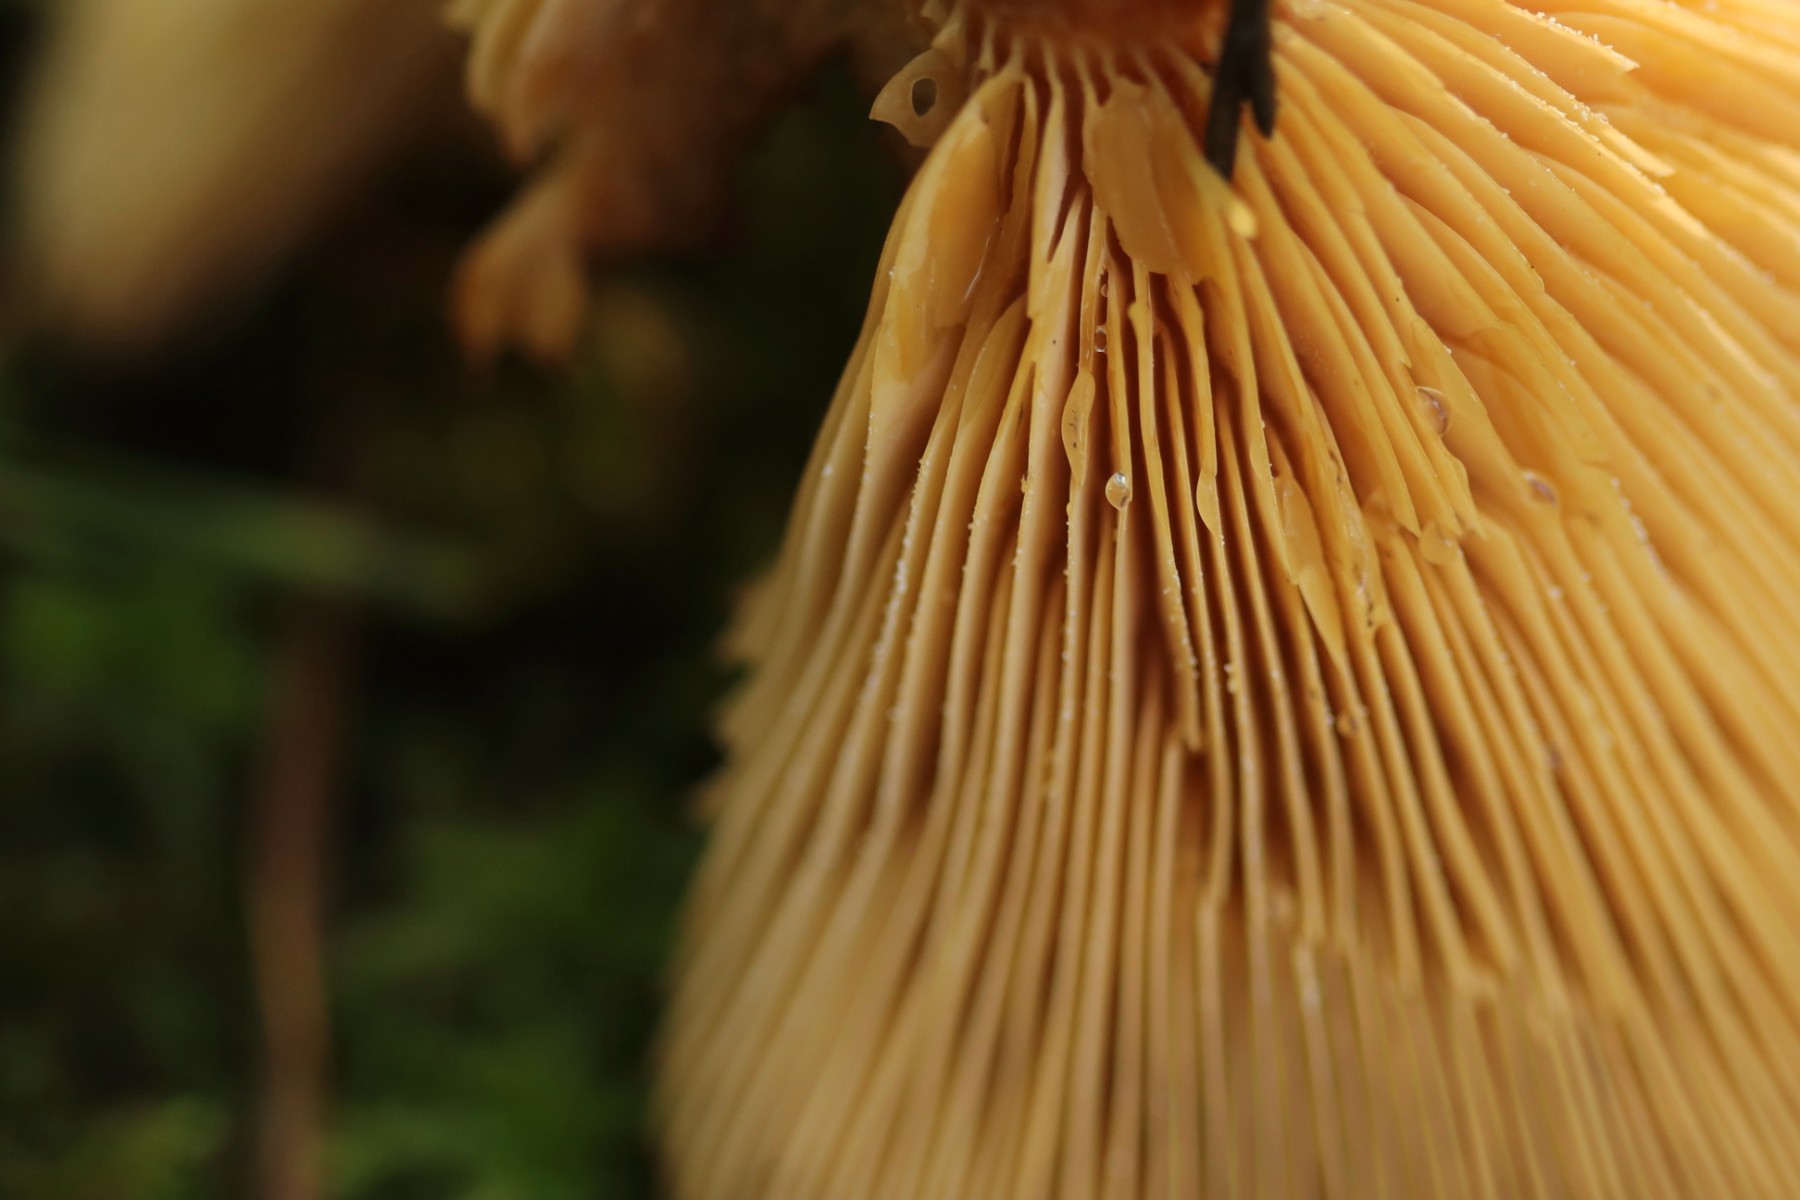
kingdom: Fungi
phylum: Basidiomycota
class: Agaricomycetes
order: Russulales
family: Russulaceae
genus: Lactarius
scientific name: Lactarius helvus
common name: mose-mælkehat
